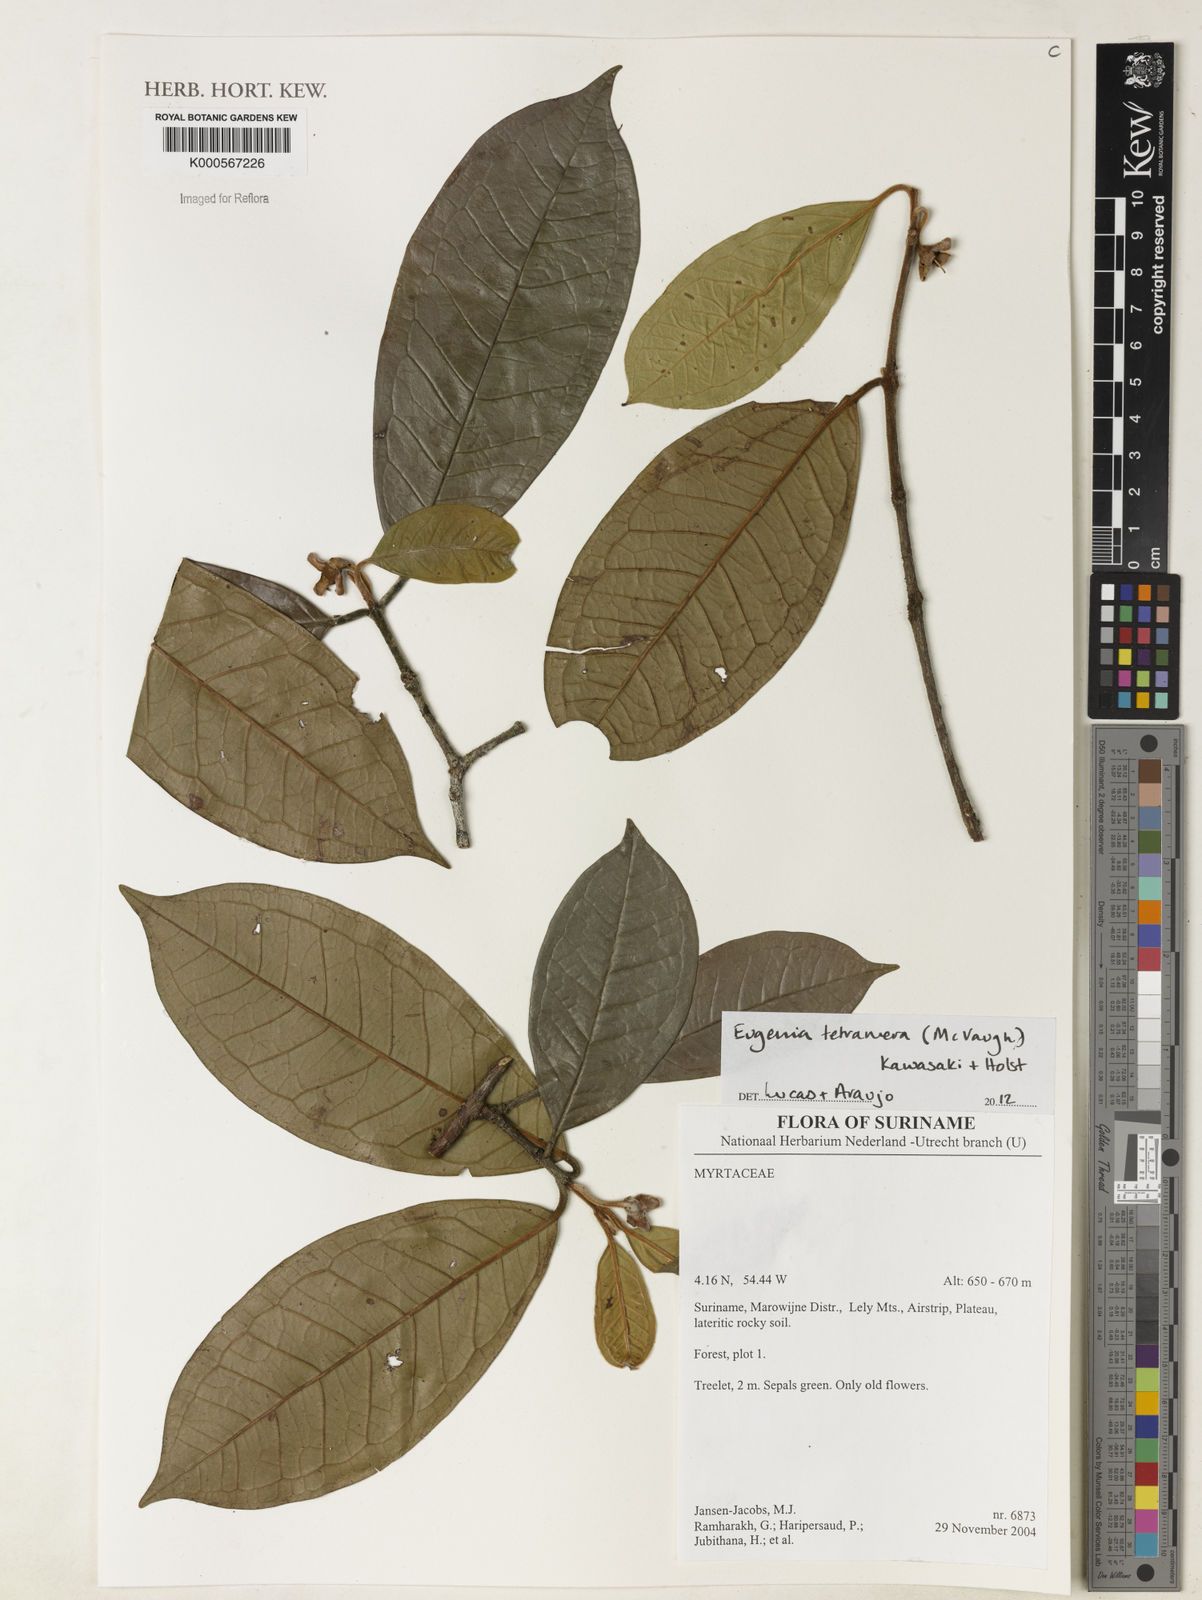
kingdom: Plantae
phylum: Tracheophyta
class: Magnoliopsida
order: Myrtales
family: Myrtaceae
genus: Eugenia
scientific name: Eugenia tetramera
